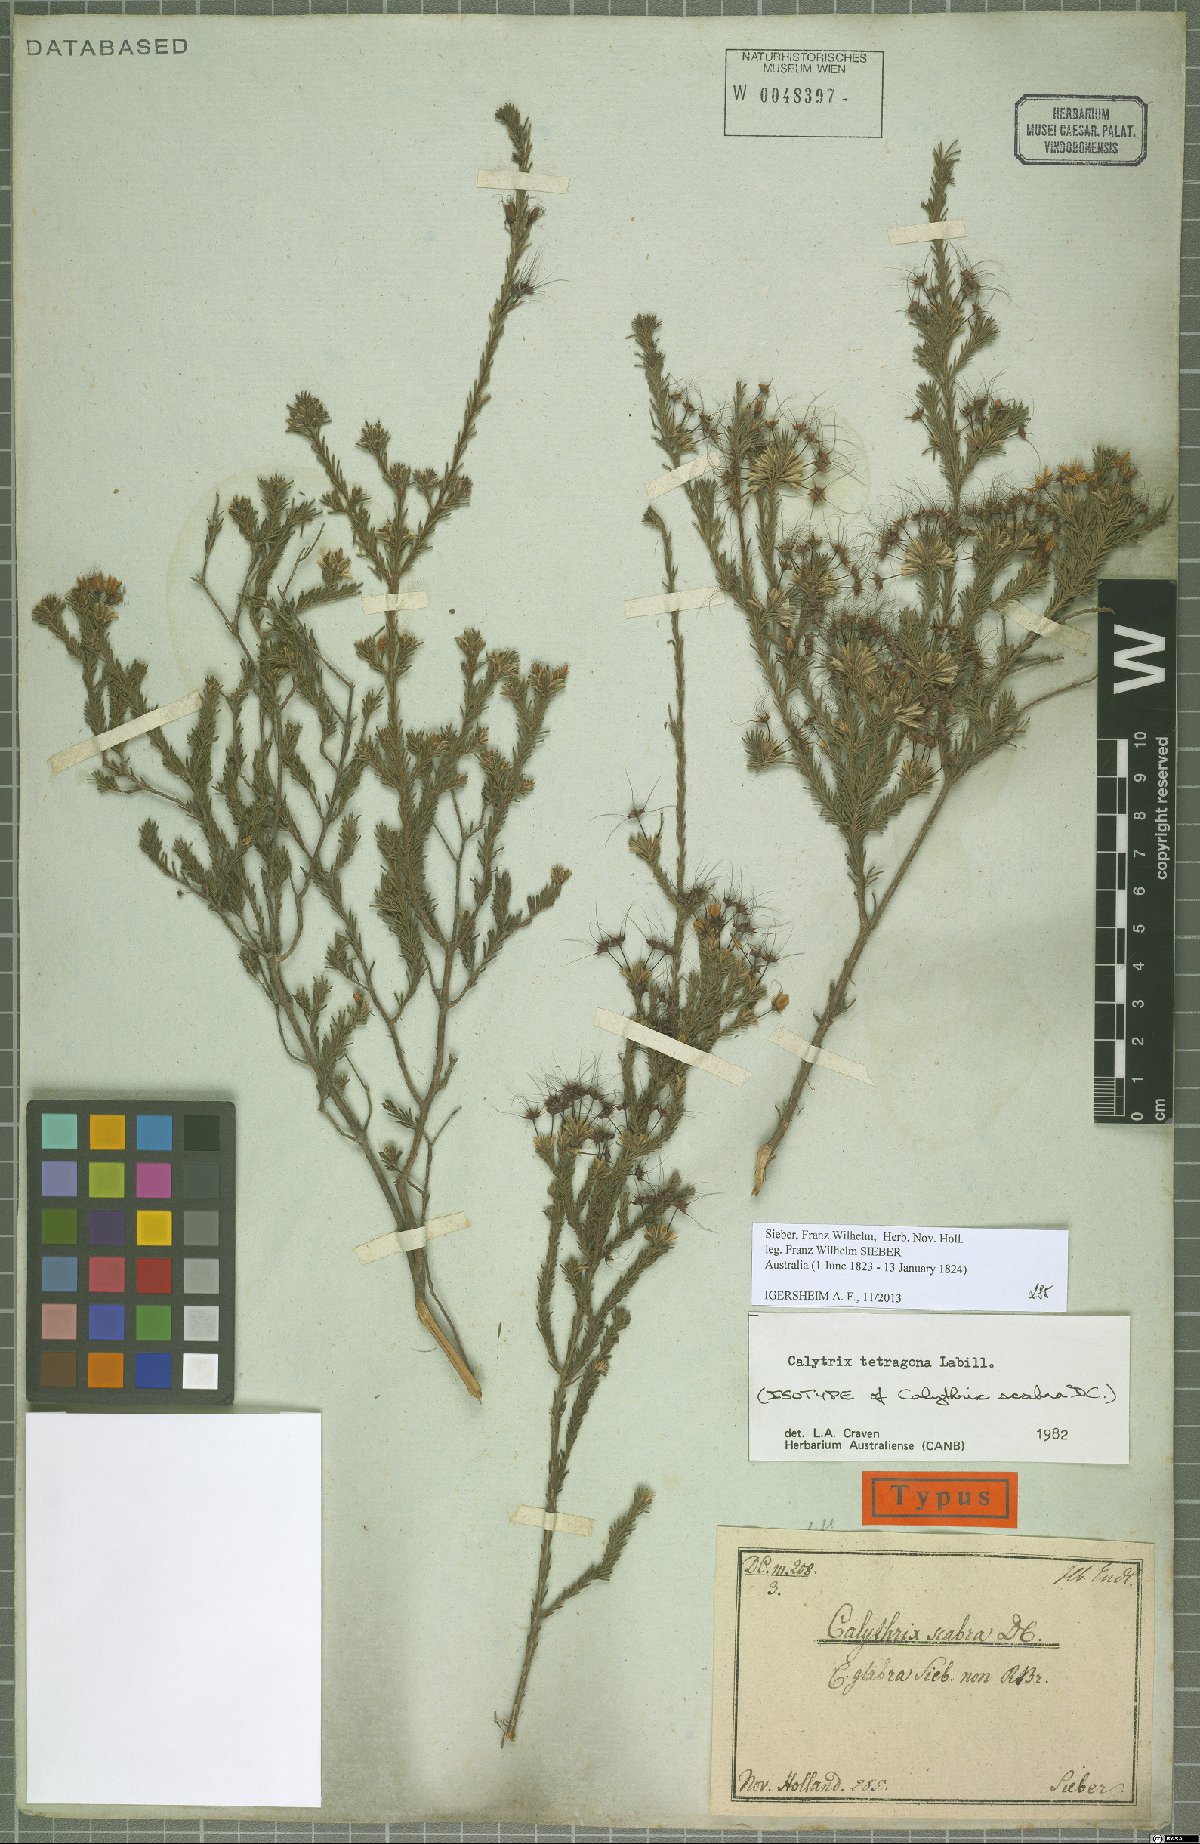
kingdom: Plantae
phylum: Tracheophyta
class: Magnoliopsida
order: Myrtales
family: Myrtaceae
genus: Calytrix
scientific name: Calytrix tetragona
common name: Common fringe myrtle
